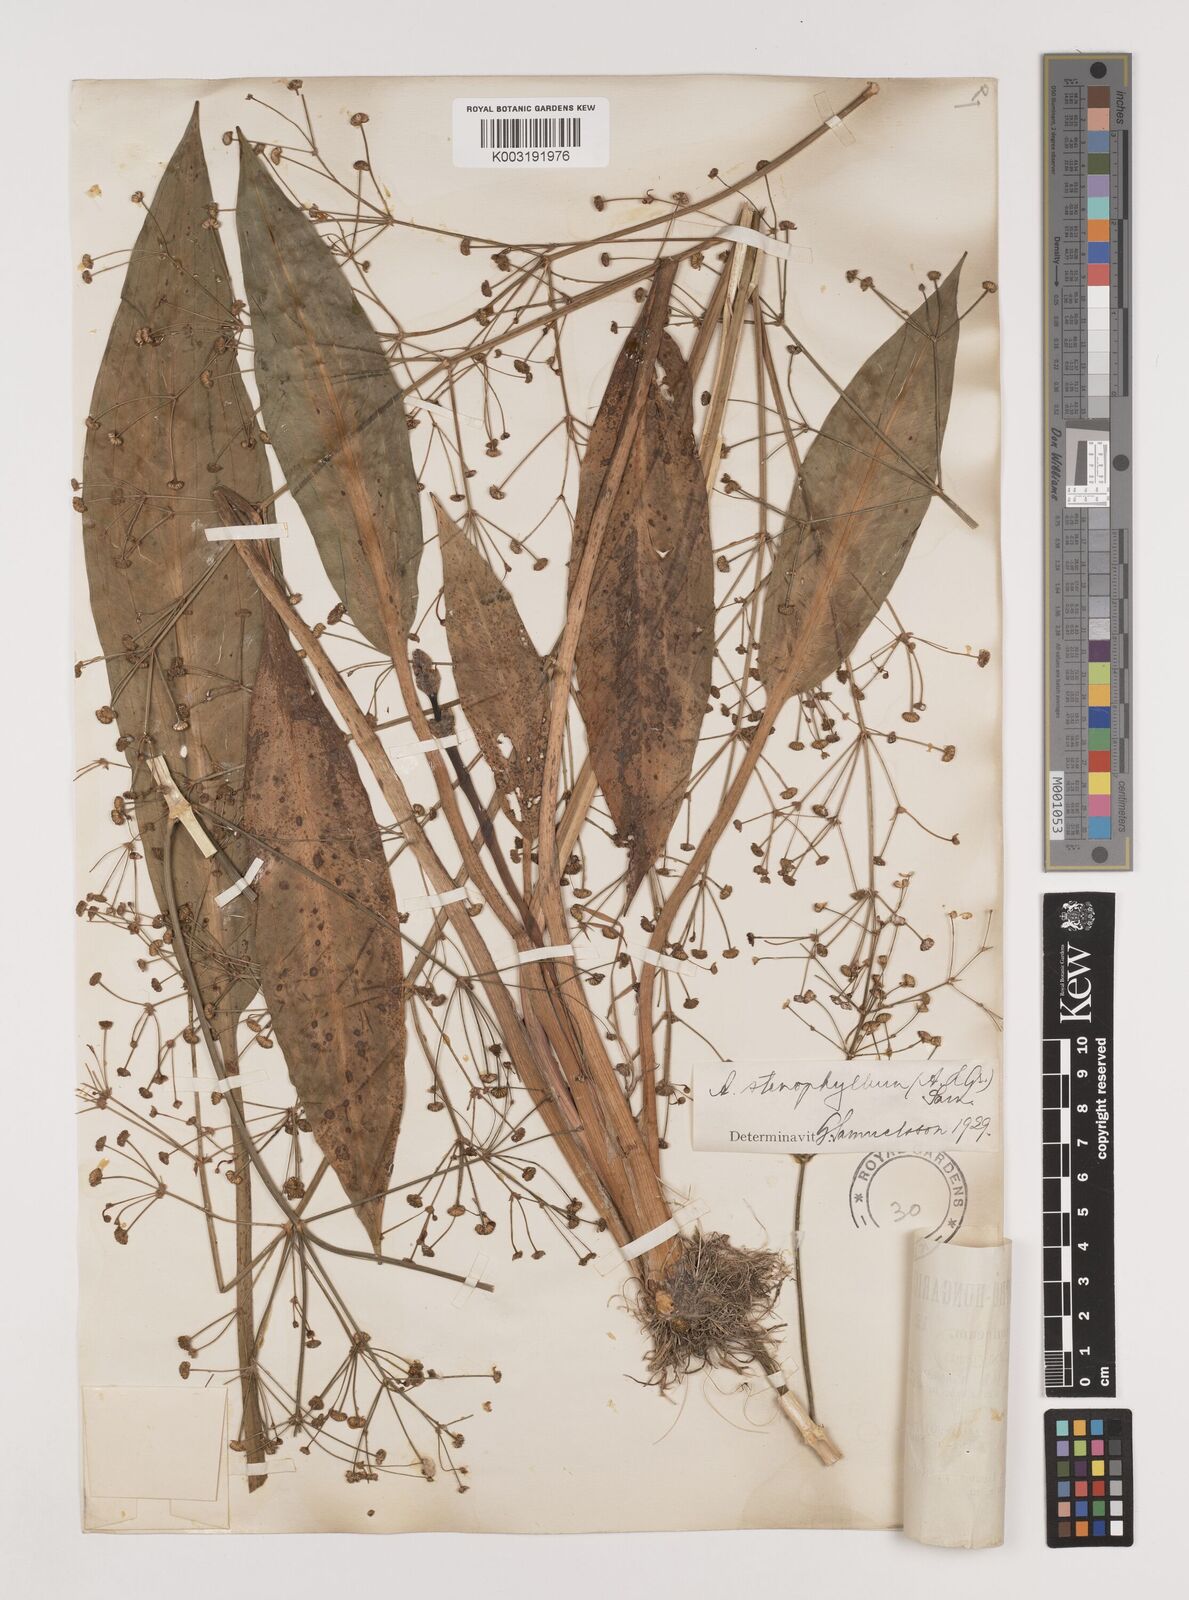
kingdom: Plantae
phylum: Tracheophyta
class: Liliopsida
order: Alismatales
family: Alismataceae
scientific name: Alismataceae
